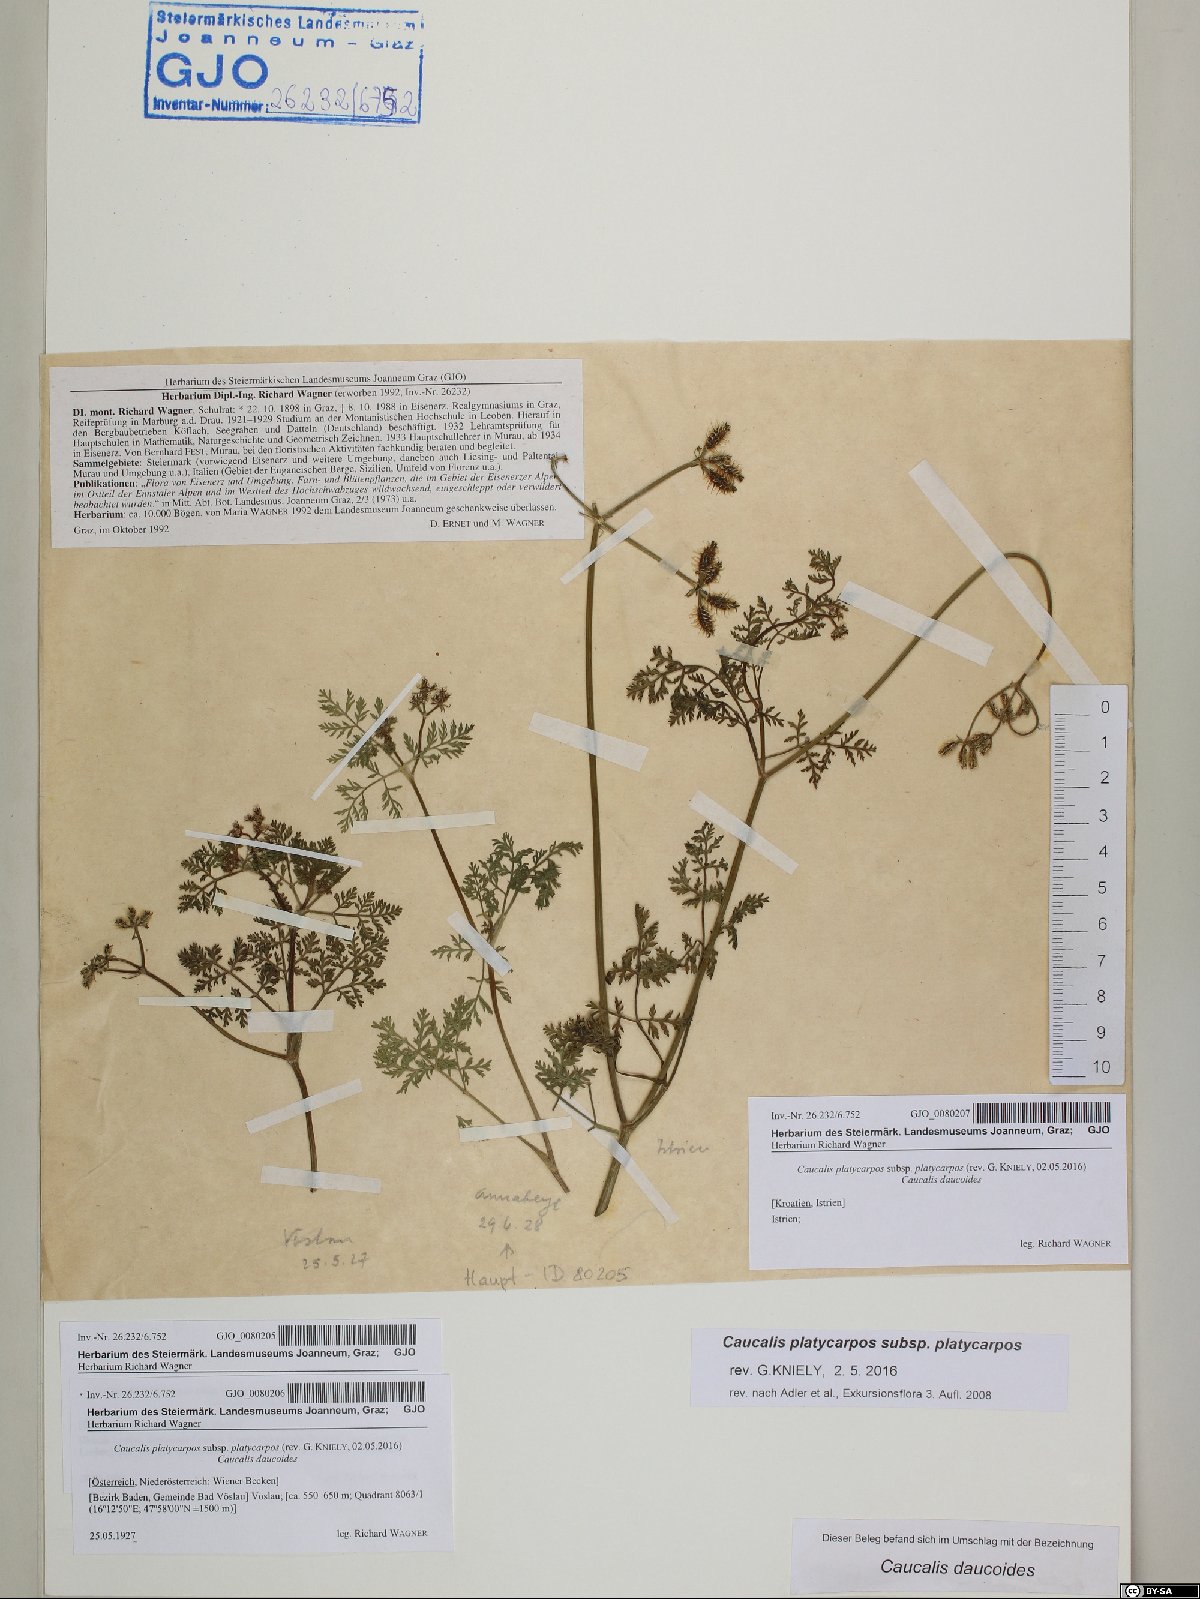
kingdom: Plantae
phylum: Tracheophyta
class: Magnoliopsida
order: Apiales
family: Apiaceae
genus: Caucalis
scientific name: Caucalis platycarpos
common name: Small bur-parsley
